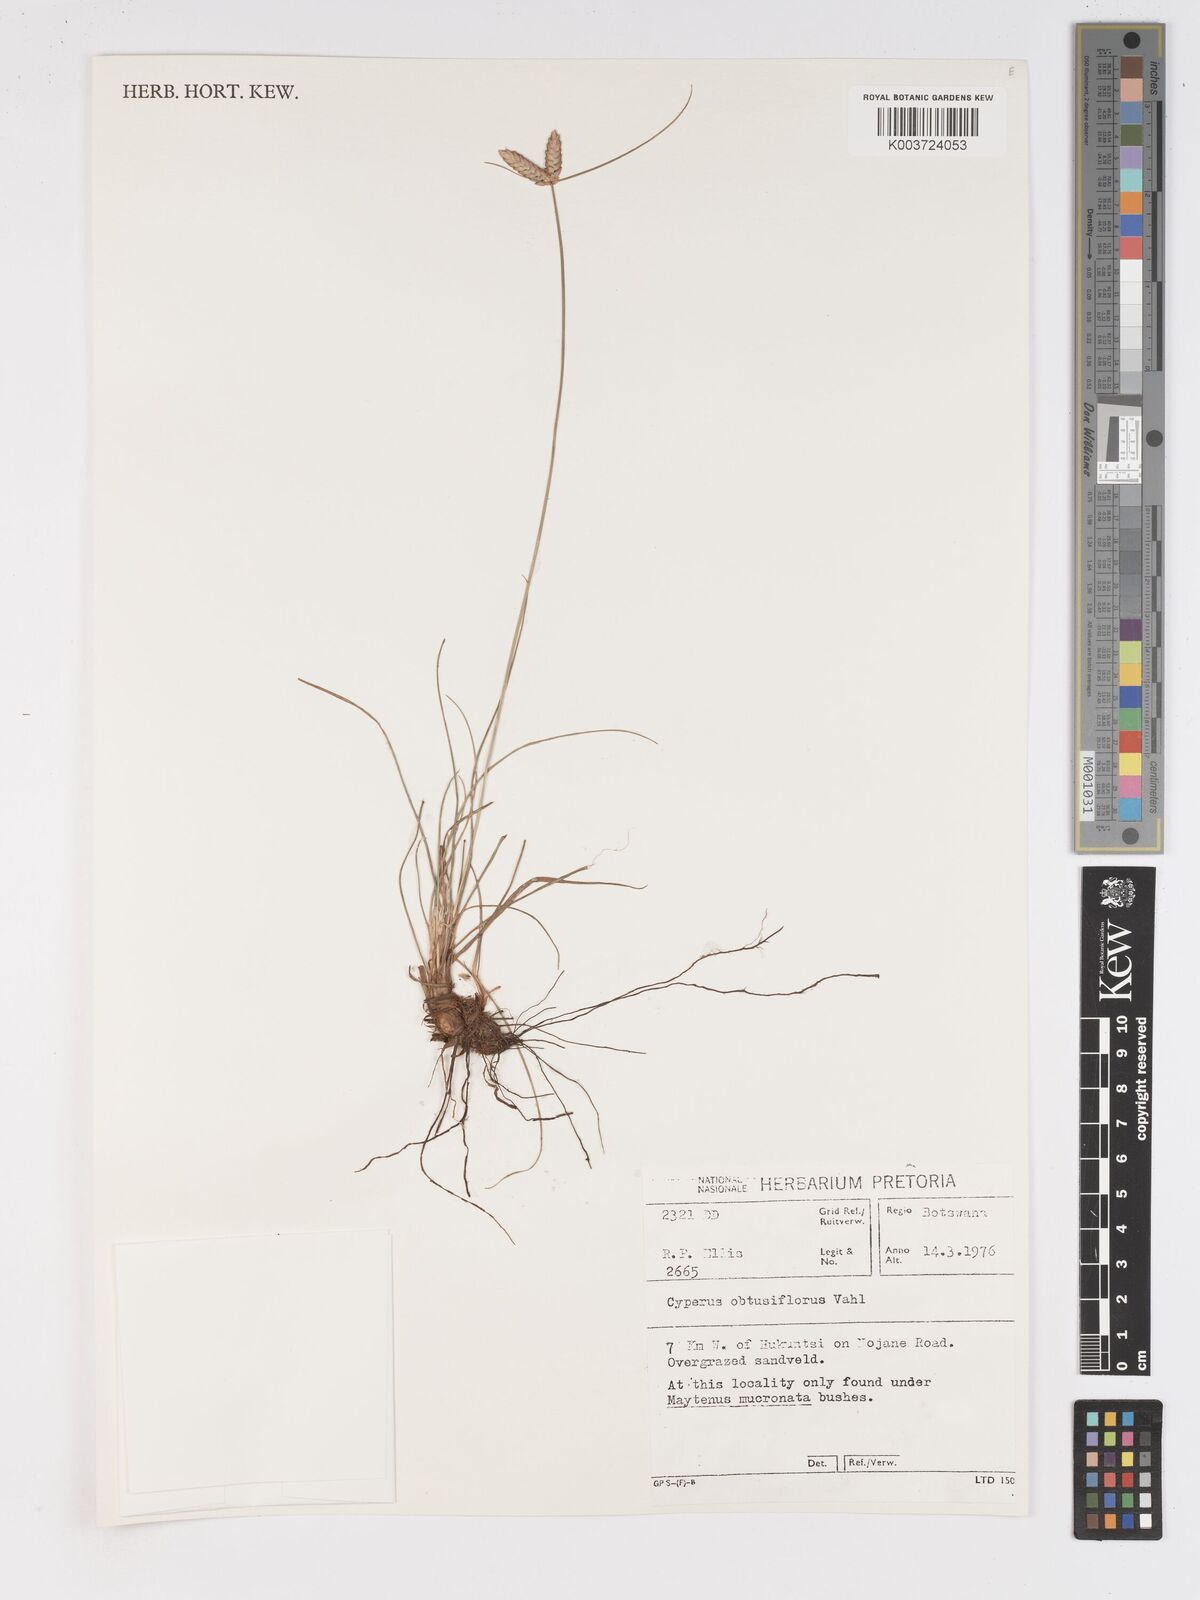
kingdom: Plantae
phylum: Tracheophyta
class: Liliopsida
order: Poales
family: Cyperaceae
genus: Cyperus
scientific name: Cyperus niveus
